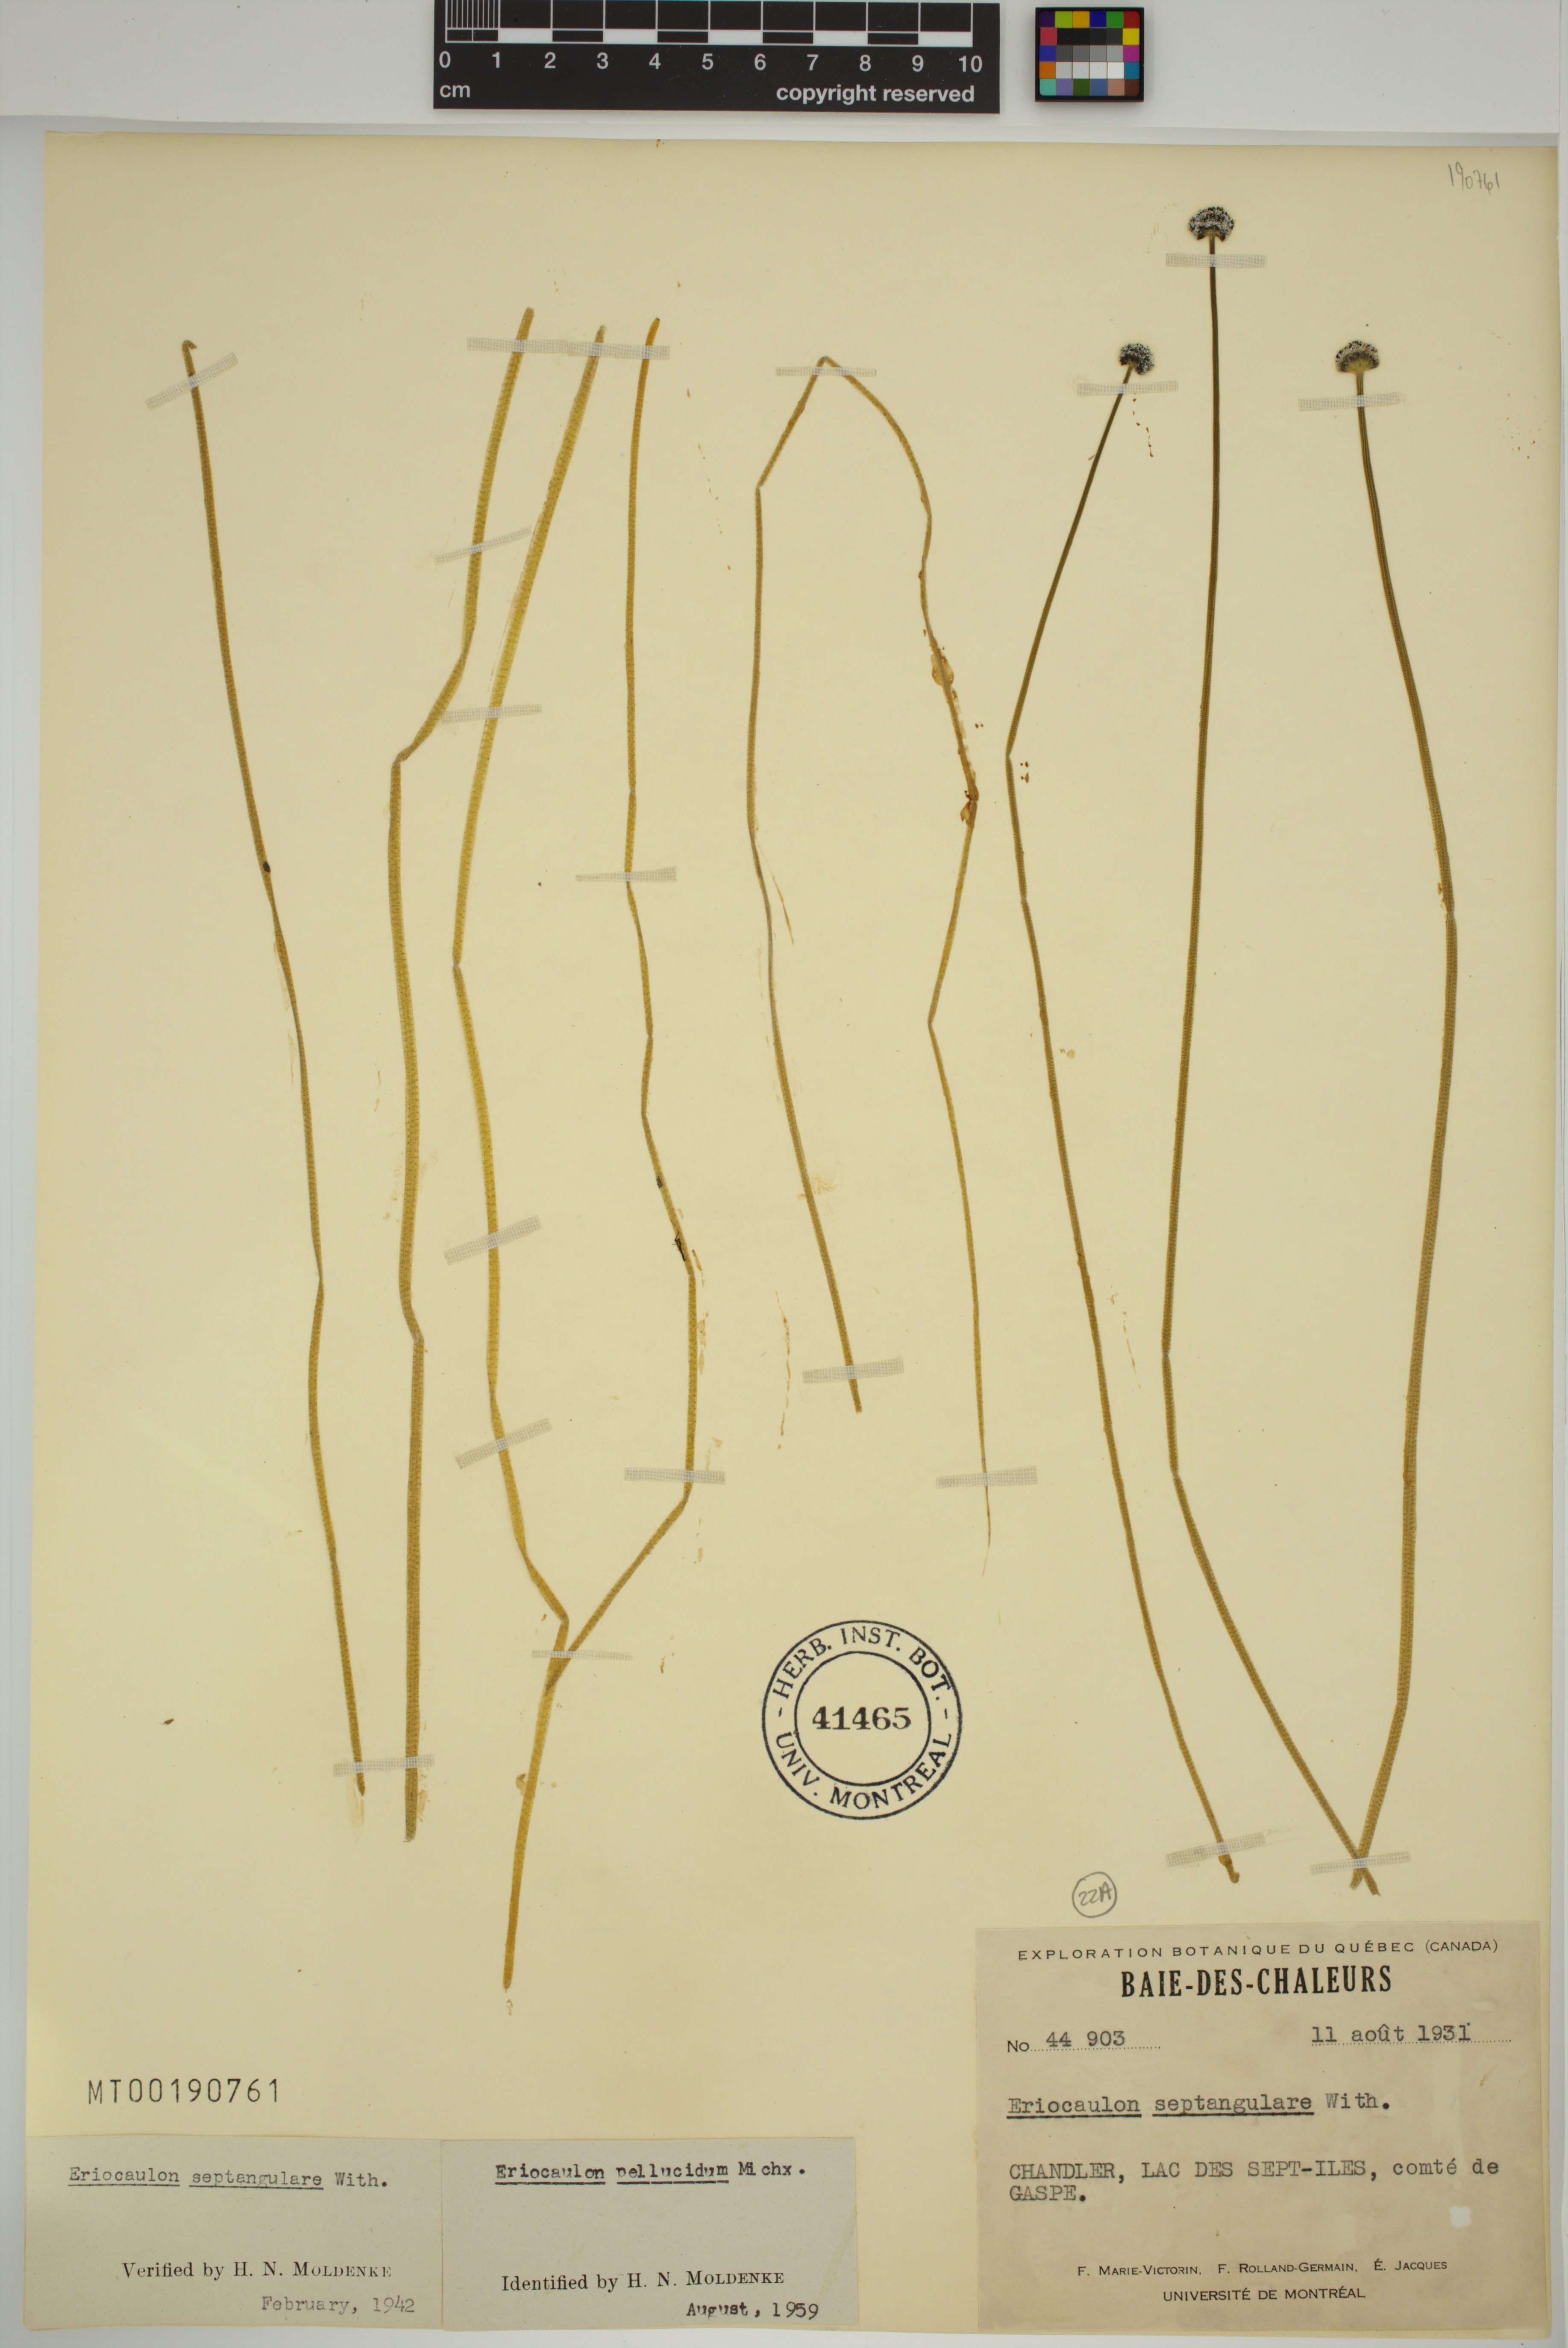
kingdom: Plantae
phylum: Tracheophyta
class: Liliopsida
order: Poales
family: Eriocaulaceae
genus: Eriocaulon
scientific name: Eriocaulon aquaticum
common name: Pipewort
